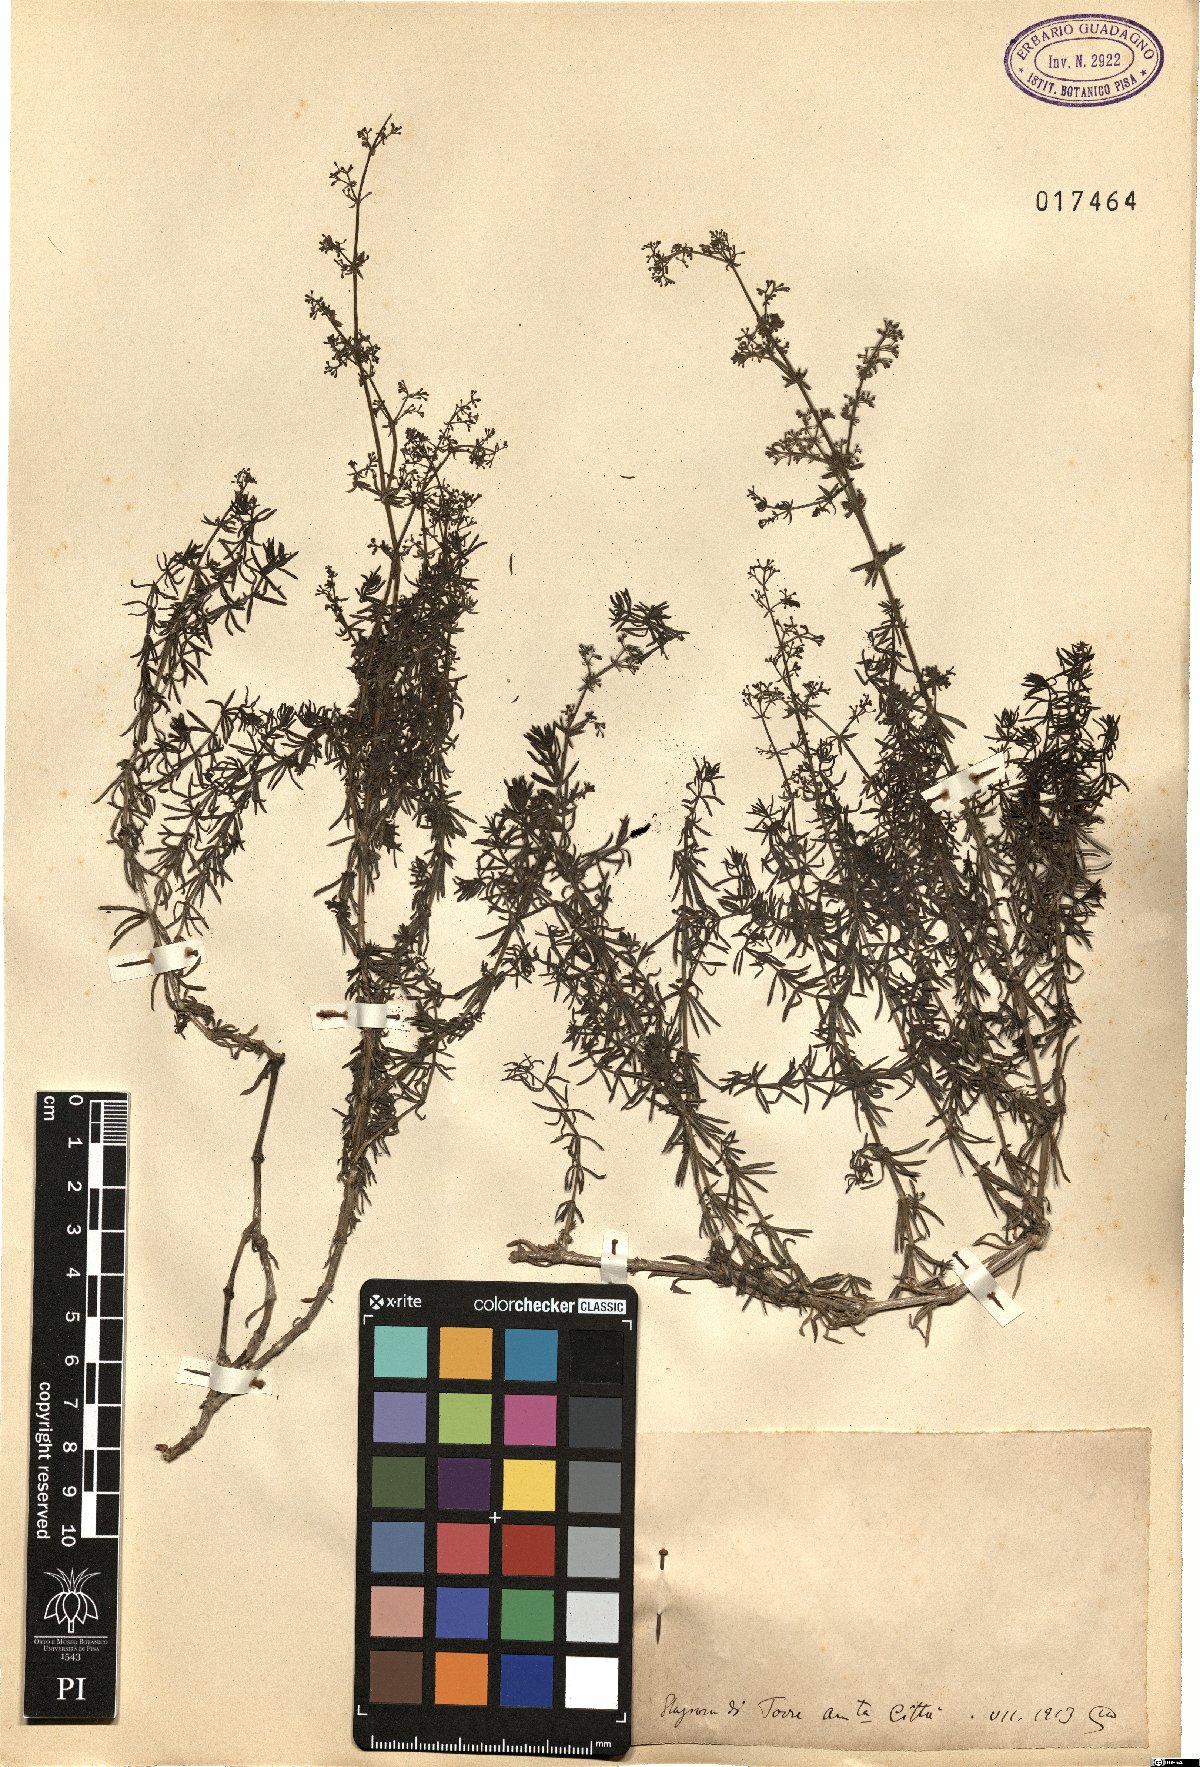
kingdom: Plantae
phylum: Tracheophyta
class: Magnoliopsida
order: Gentianales
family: Rubiaceae
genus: Galium
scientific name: Galium
